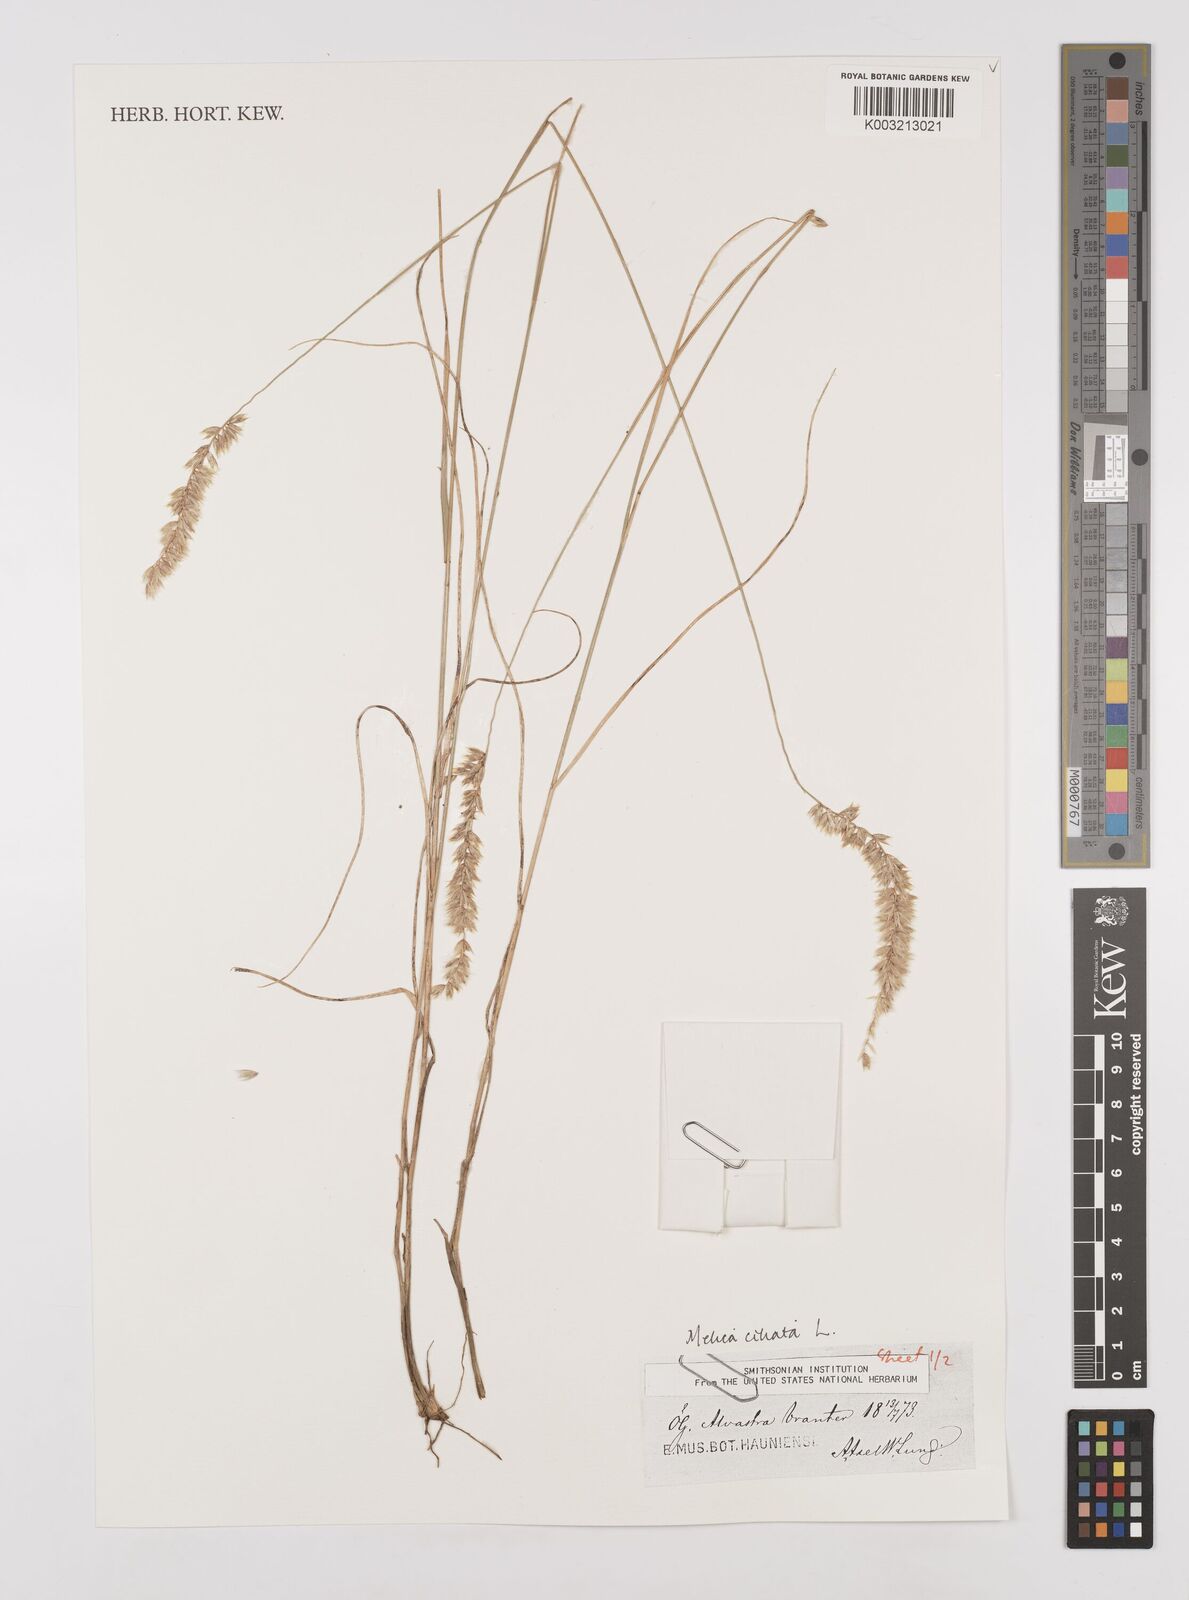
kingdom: Plantae
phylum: Tracheophyta
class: Liliopsida
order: Poales
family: Poaceae
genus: Melica
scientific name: Melica ciliata
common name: Hairy melicgrass
